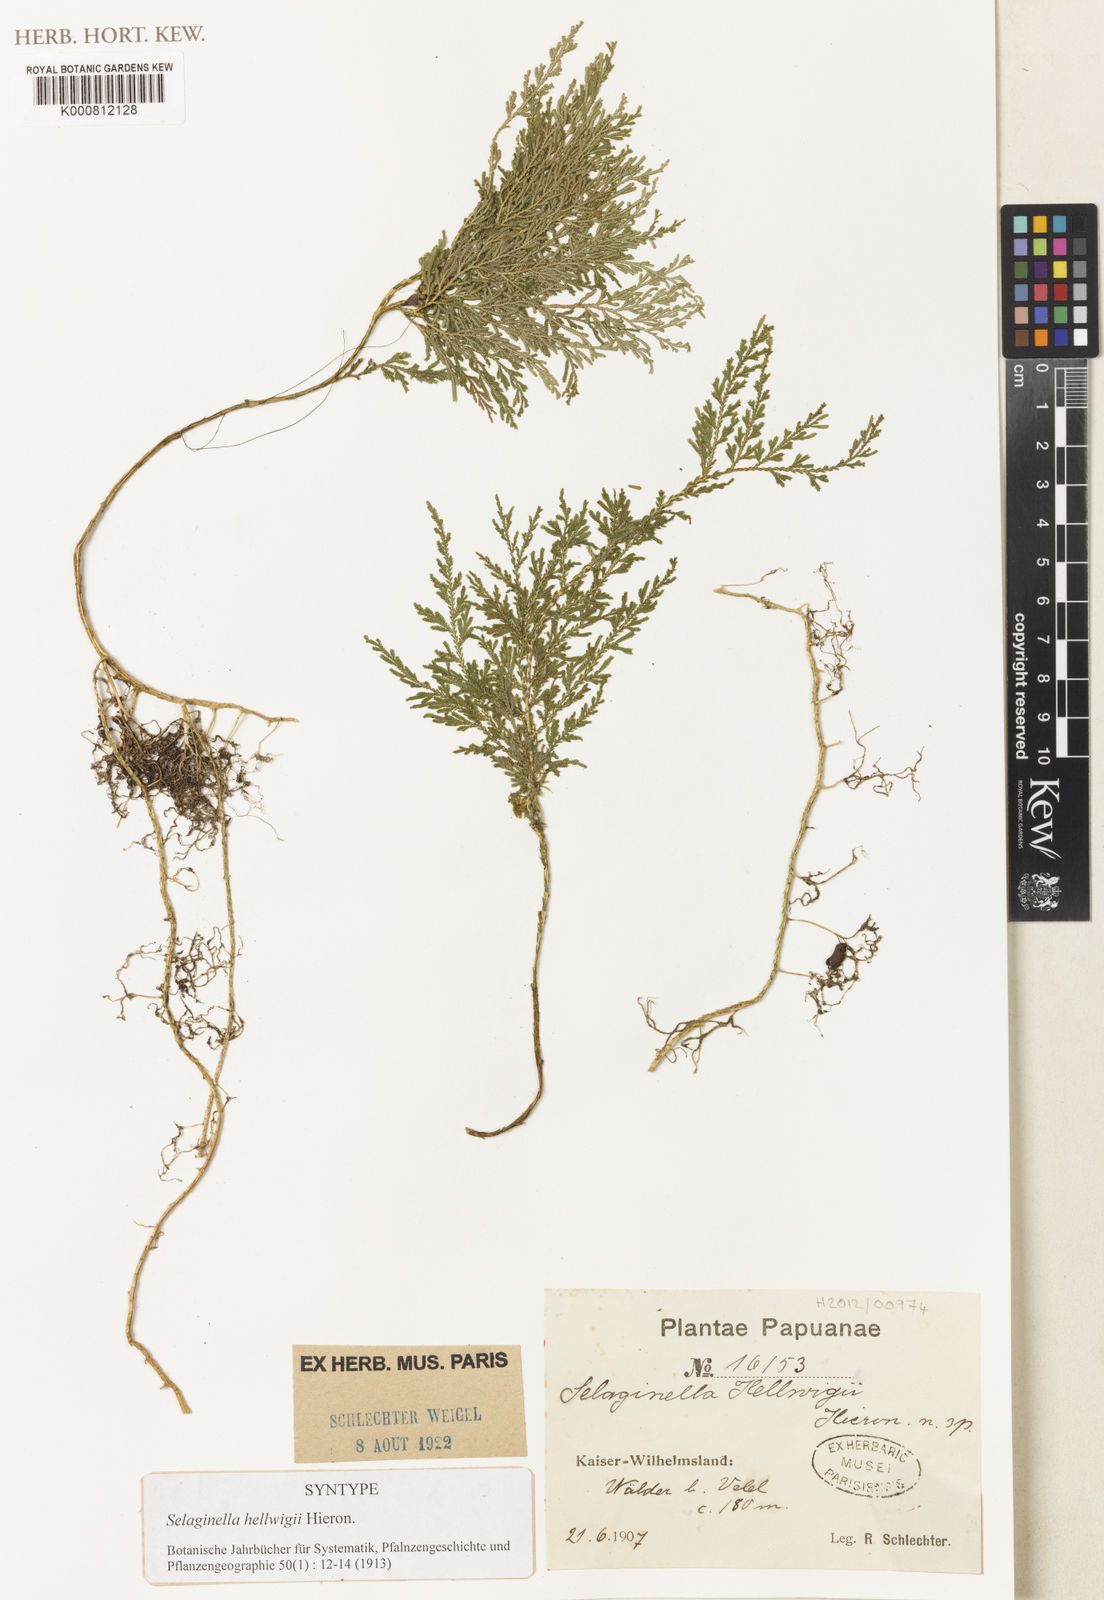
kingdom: Plantae
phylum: Tracheophyta
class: Lycopodiopsida
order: Selaginellales
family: Selaginellaceae
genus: Selaginella
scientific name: Selaginella hellwigii
